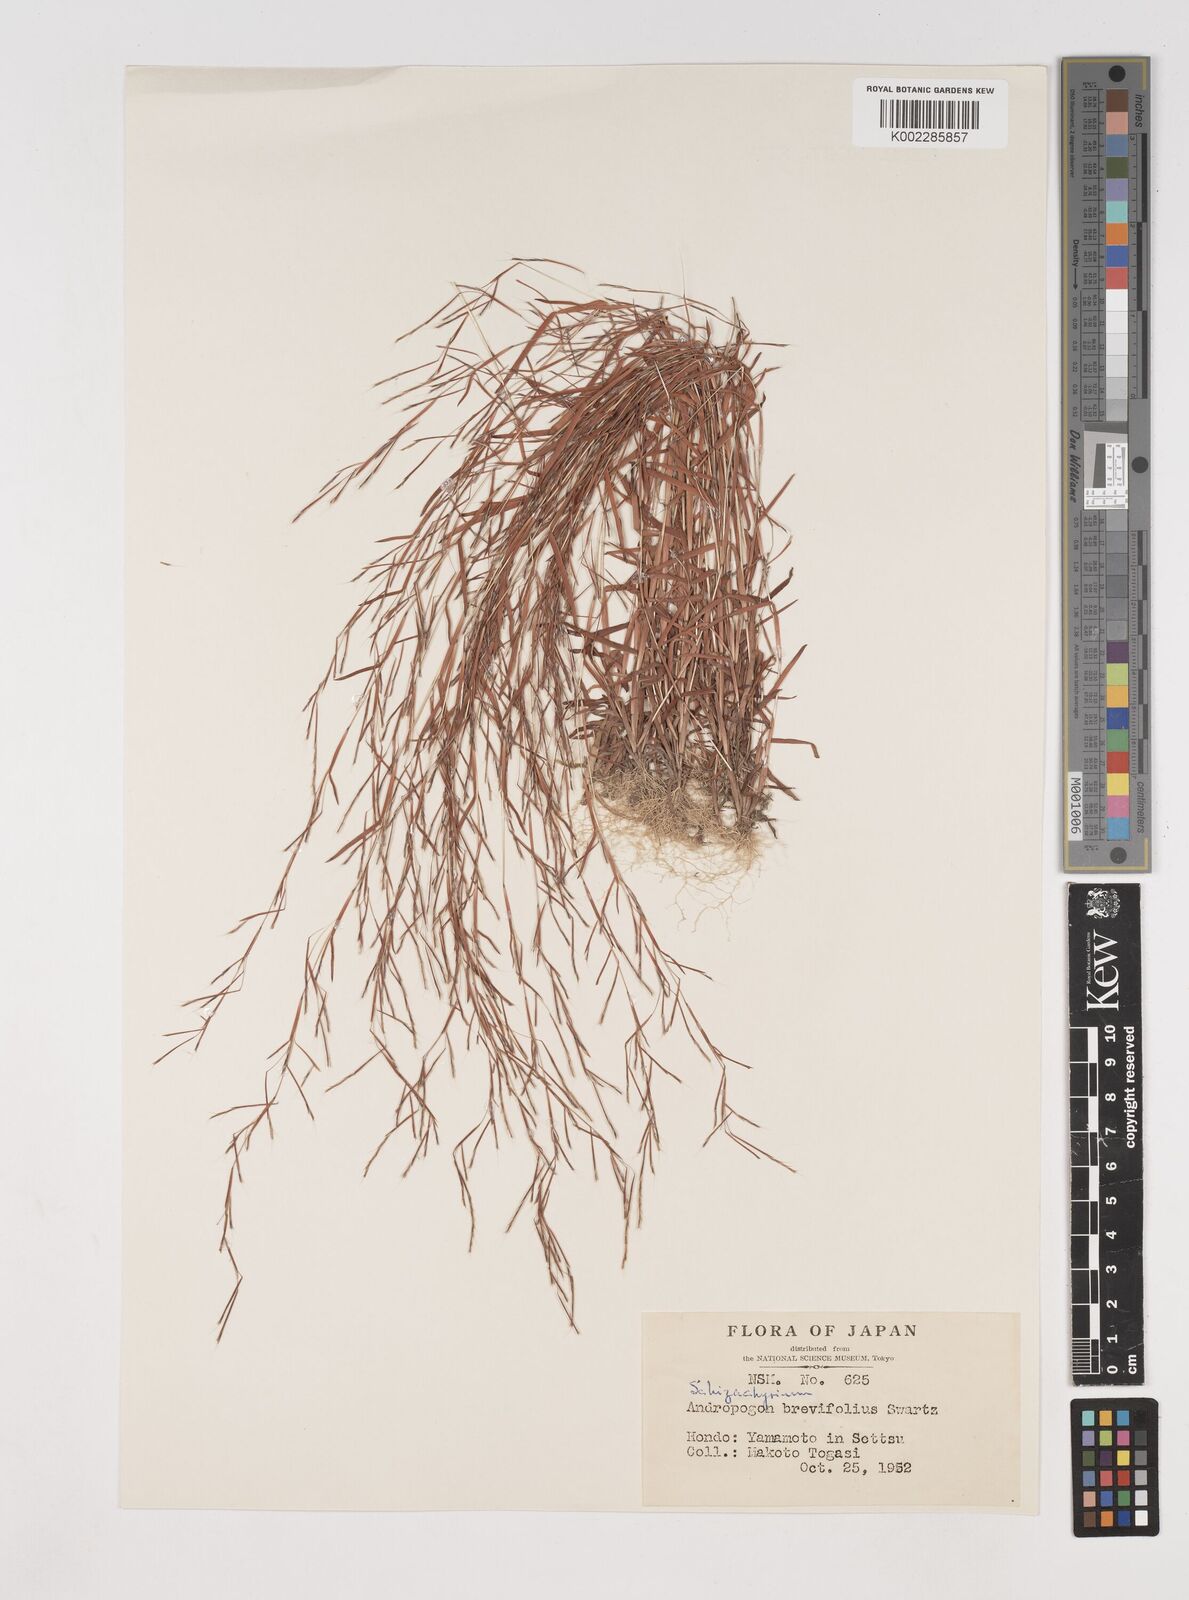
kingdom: Plantae
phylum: Tracheophyta
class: Liliopsida
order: Poales
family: Poaceae
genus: Schizachyrium
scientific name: Schizachyrium brevifolium
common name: Serillo dulce
